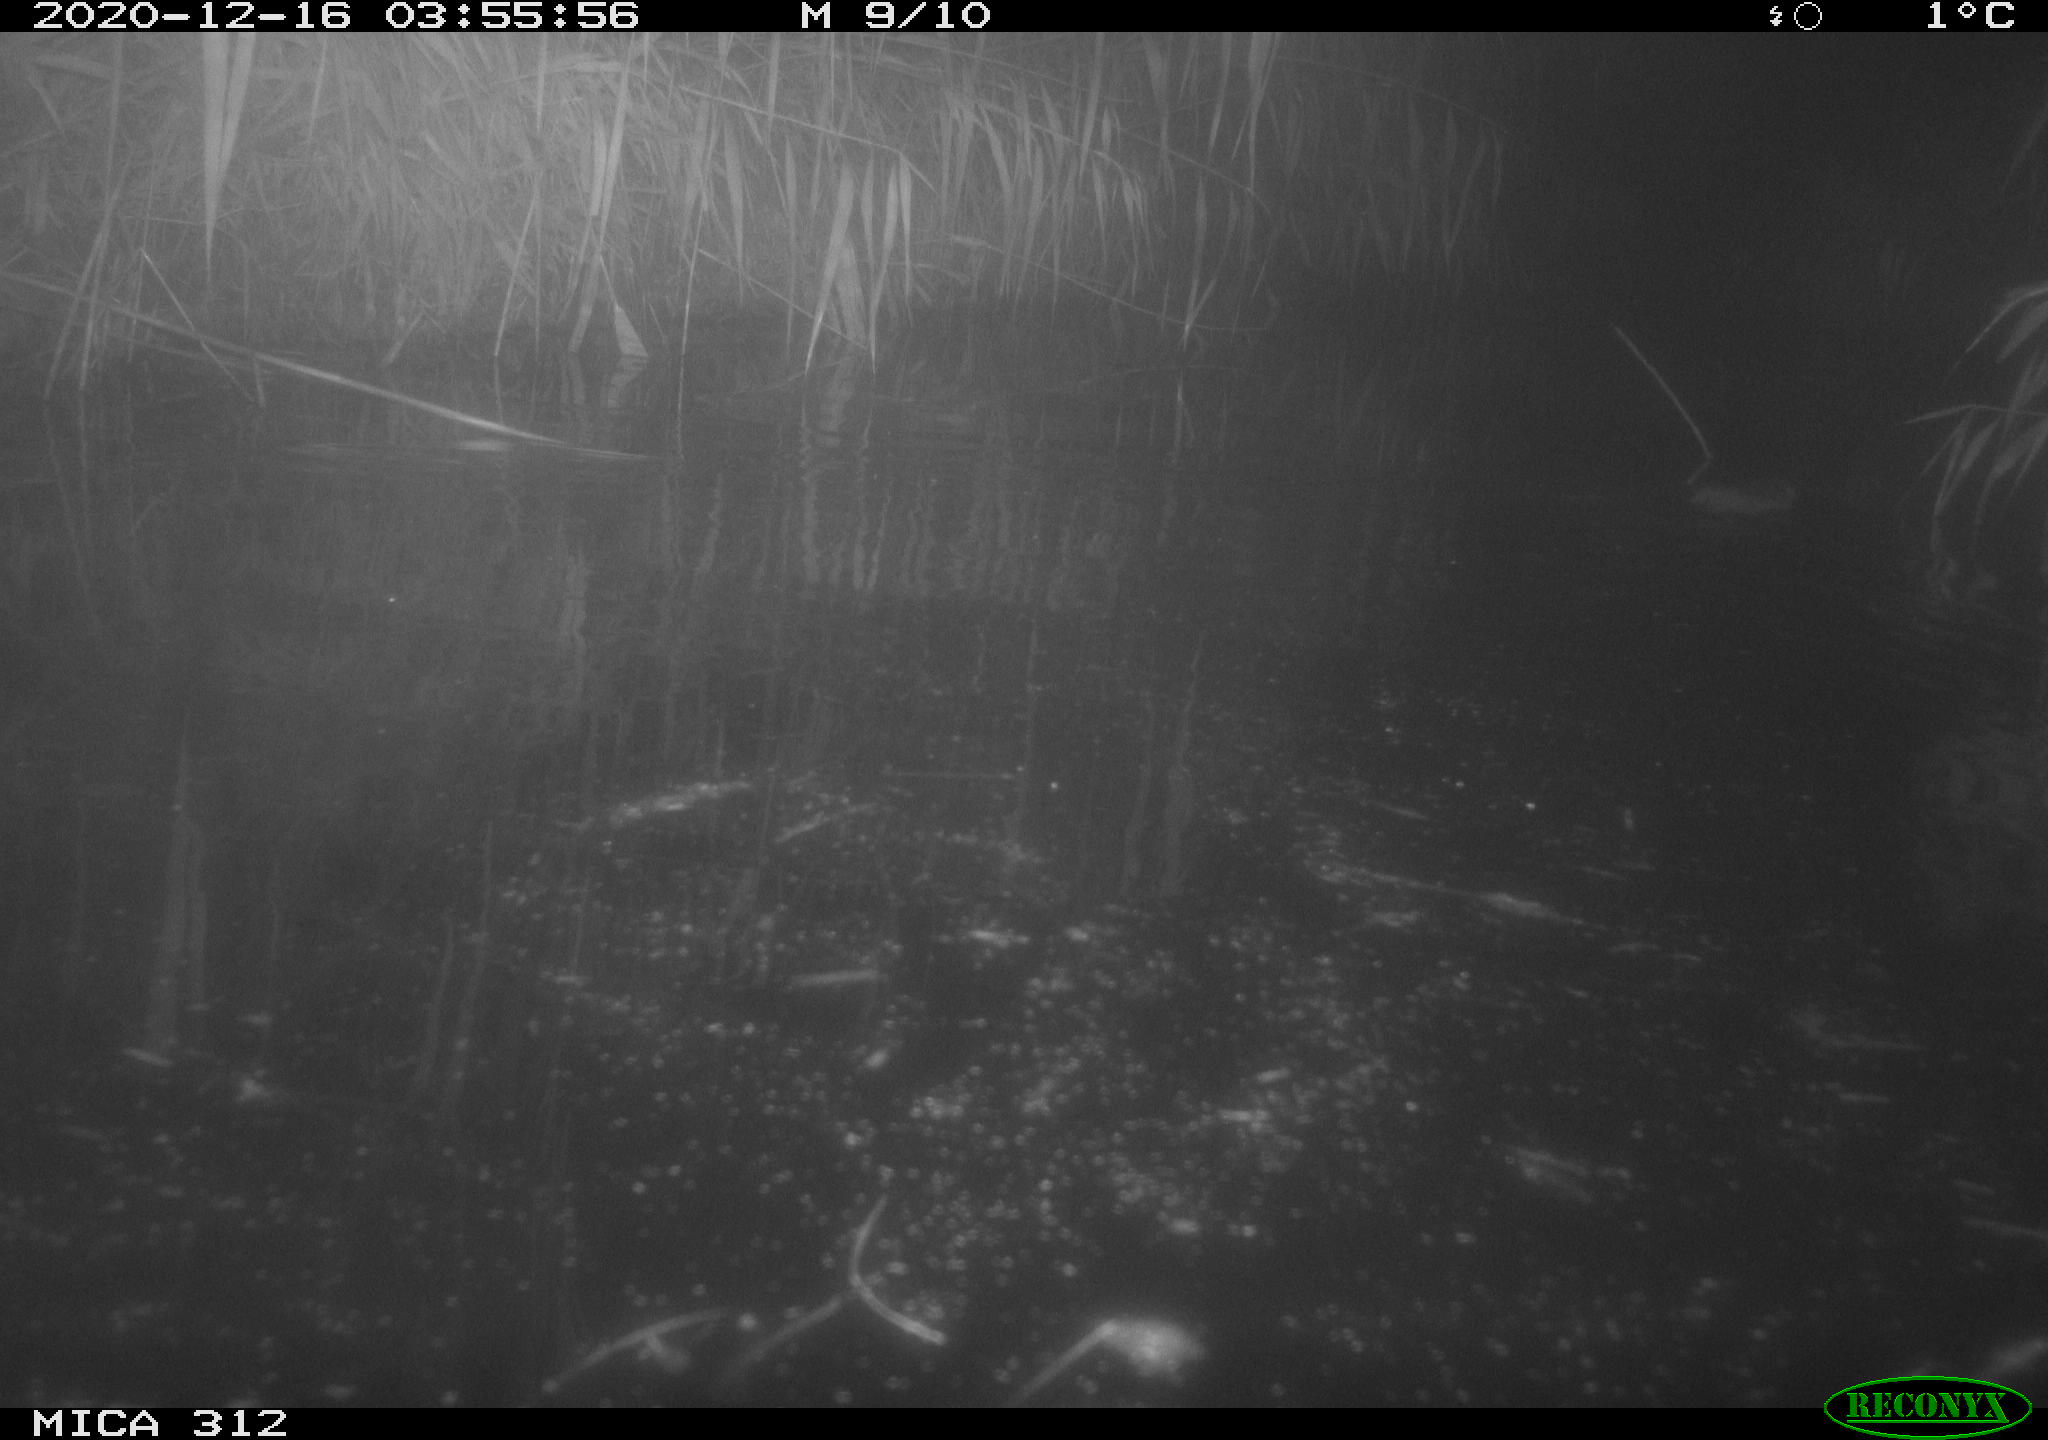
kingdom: Animalia
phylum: Chordata
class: Mammalia
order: Rodentia
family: Muridae
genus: Rattus
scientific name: Rattus norvegicus
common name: Brown rat
